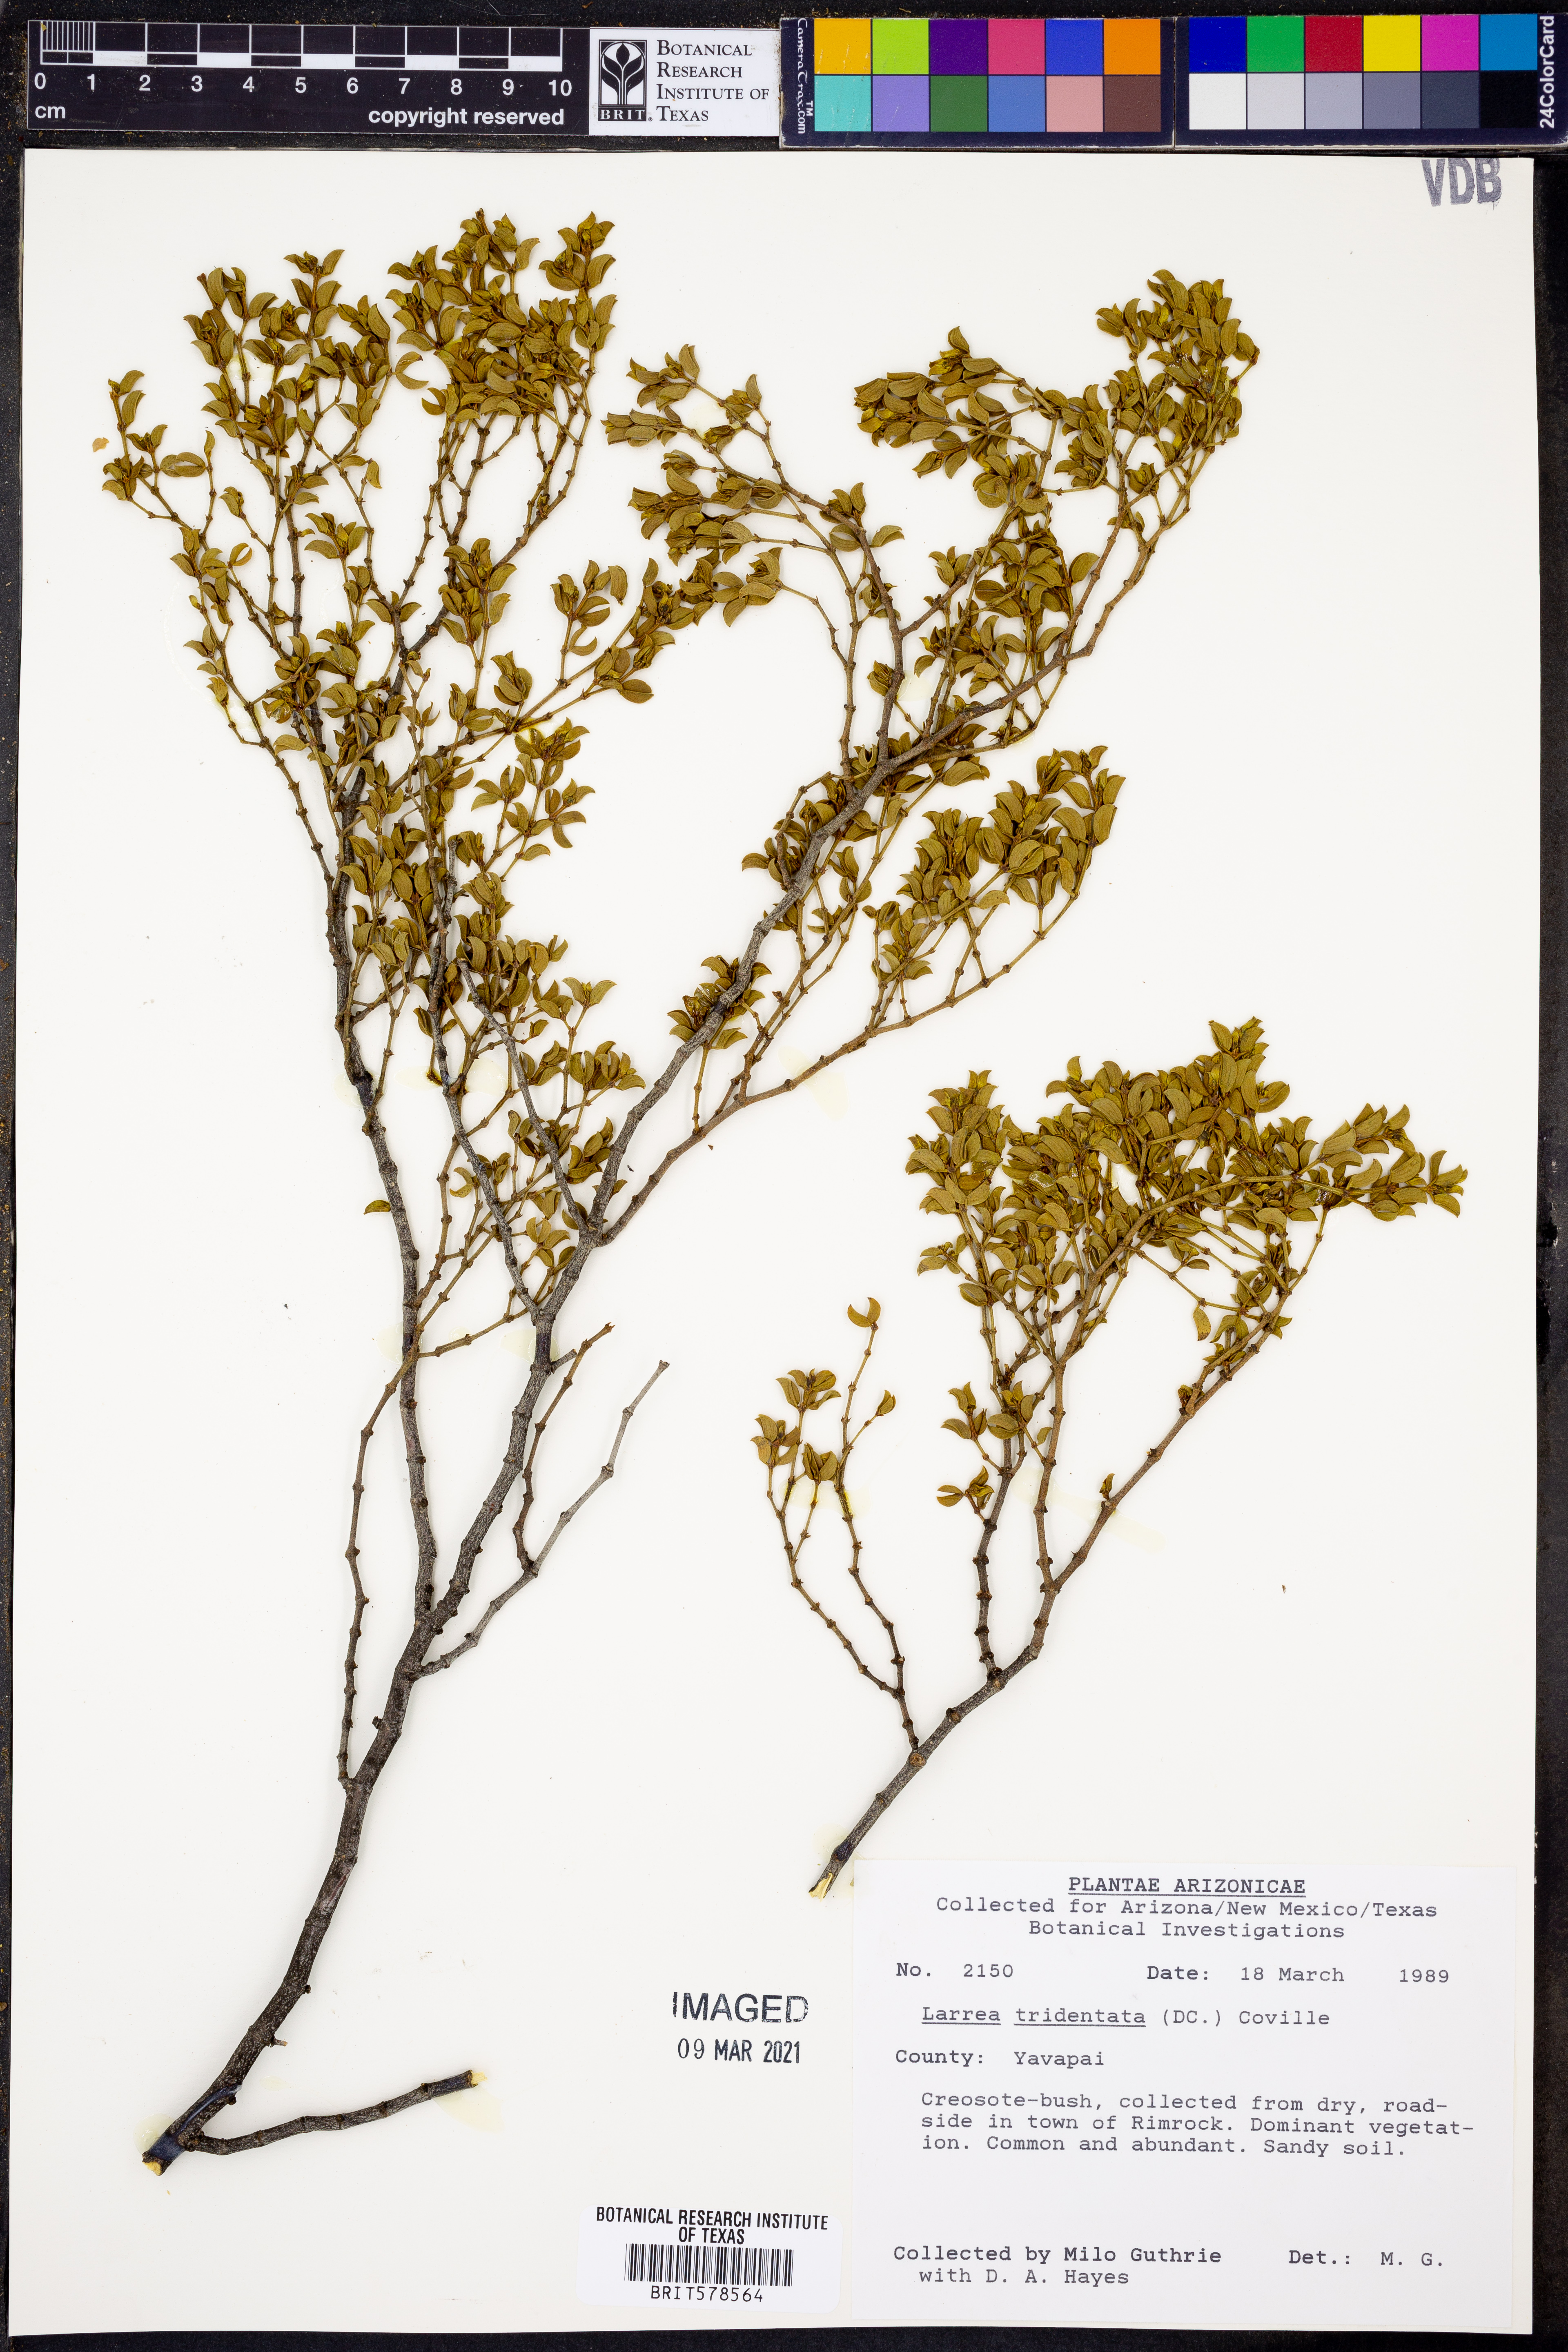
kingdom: Plantae
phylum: Tracheophyta
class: Magnoliopsida
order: Zygophyllales
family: Zygophyllaceae
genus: Larrea
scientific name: Larrea tridentata
